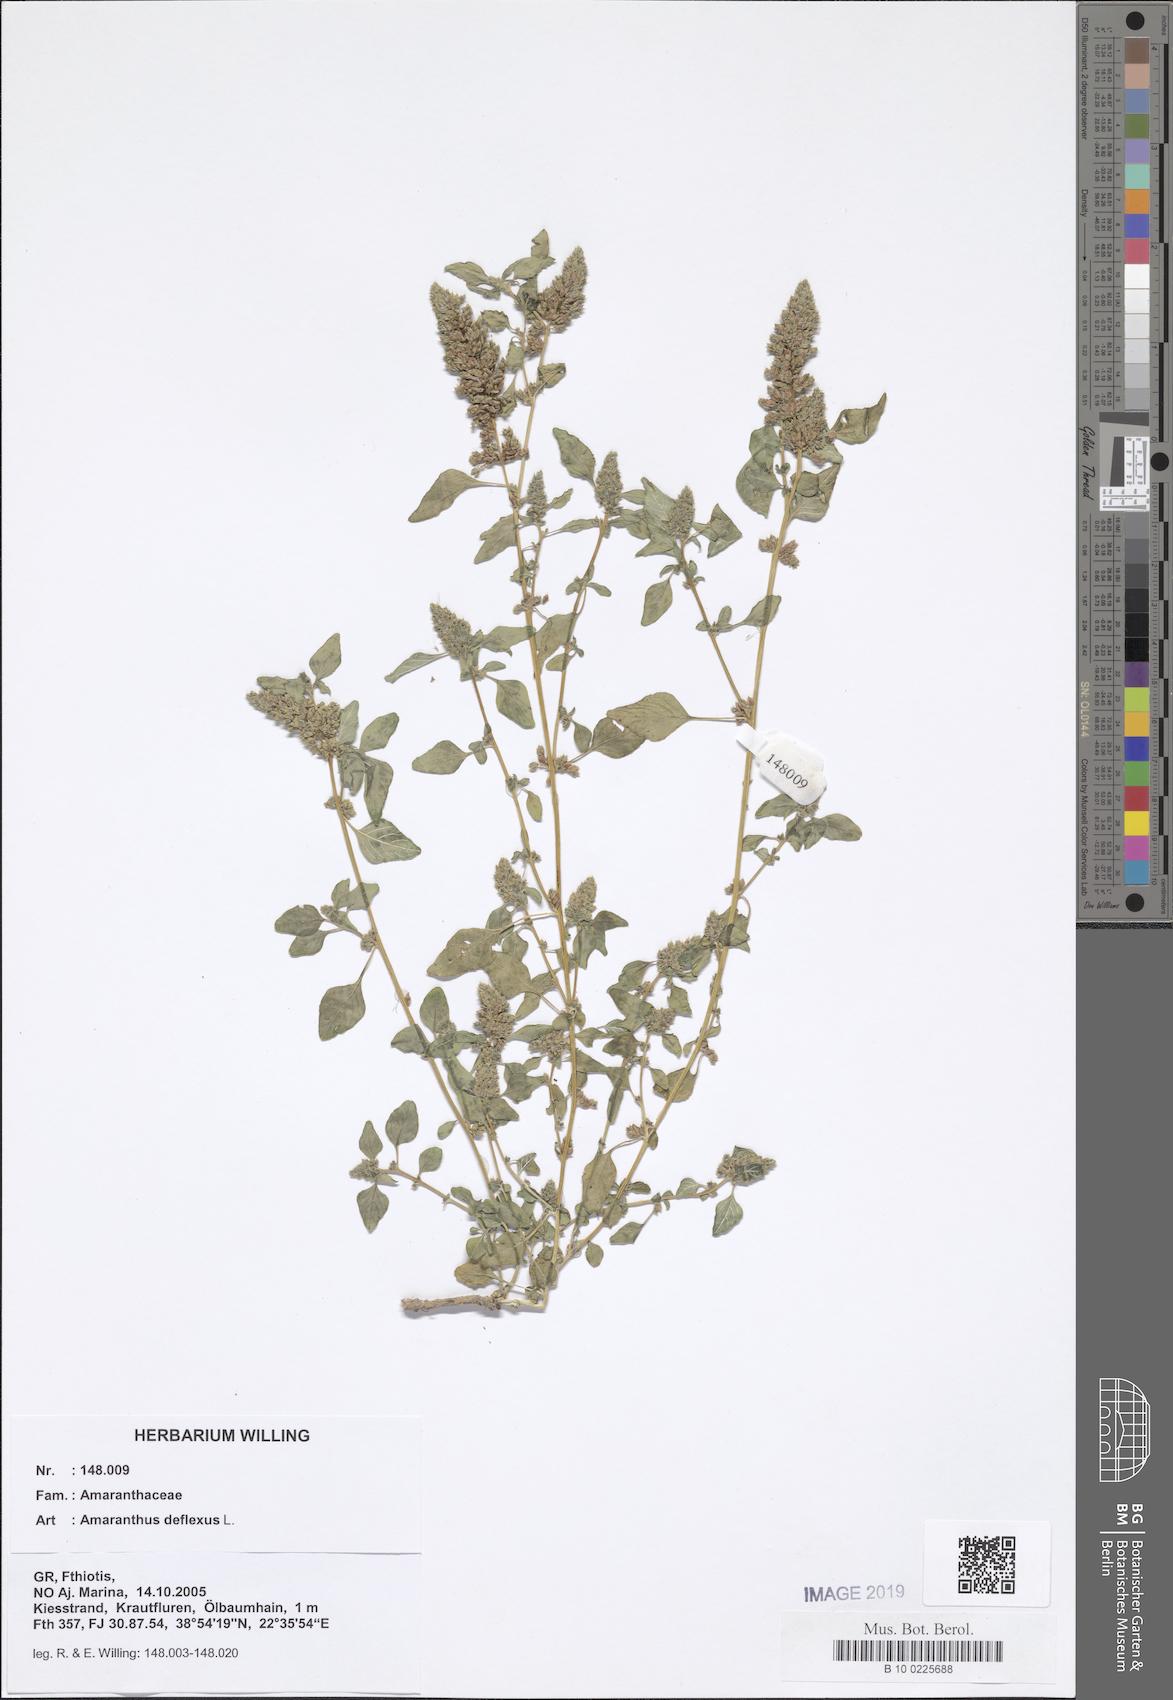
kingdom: Plantae
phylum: Tracheophyta
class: Magnoliopsida
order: Caryophyllales
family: Amaranthaceae
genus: Amaranthus
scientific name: Amaranthus deflexus
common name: Perennial pigweed
